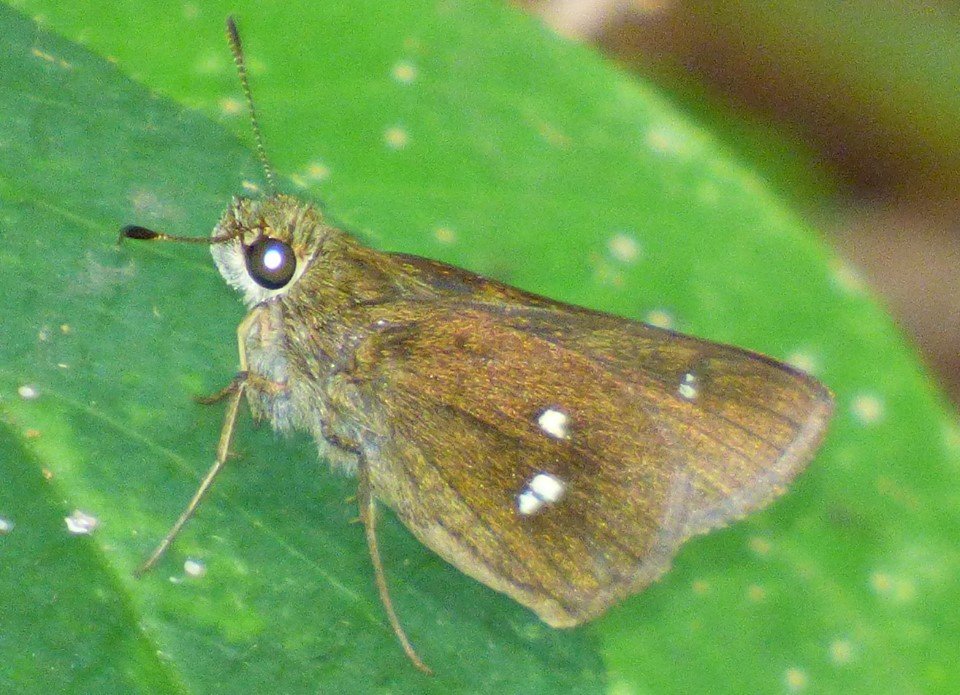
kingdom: Animalia
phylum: Arthropoda
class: Insecta
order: Lepidoptera
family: Hesperiidae
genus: Oligoria
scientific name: Oligoria maculata
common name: Twin-spot Skipper
